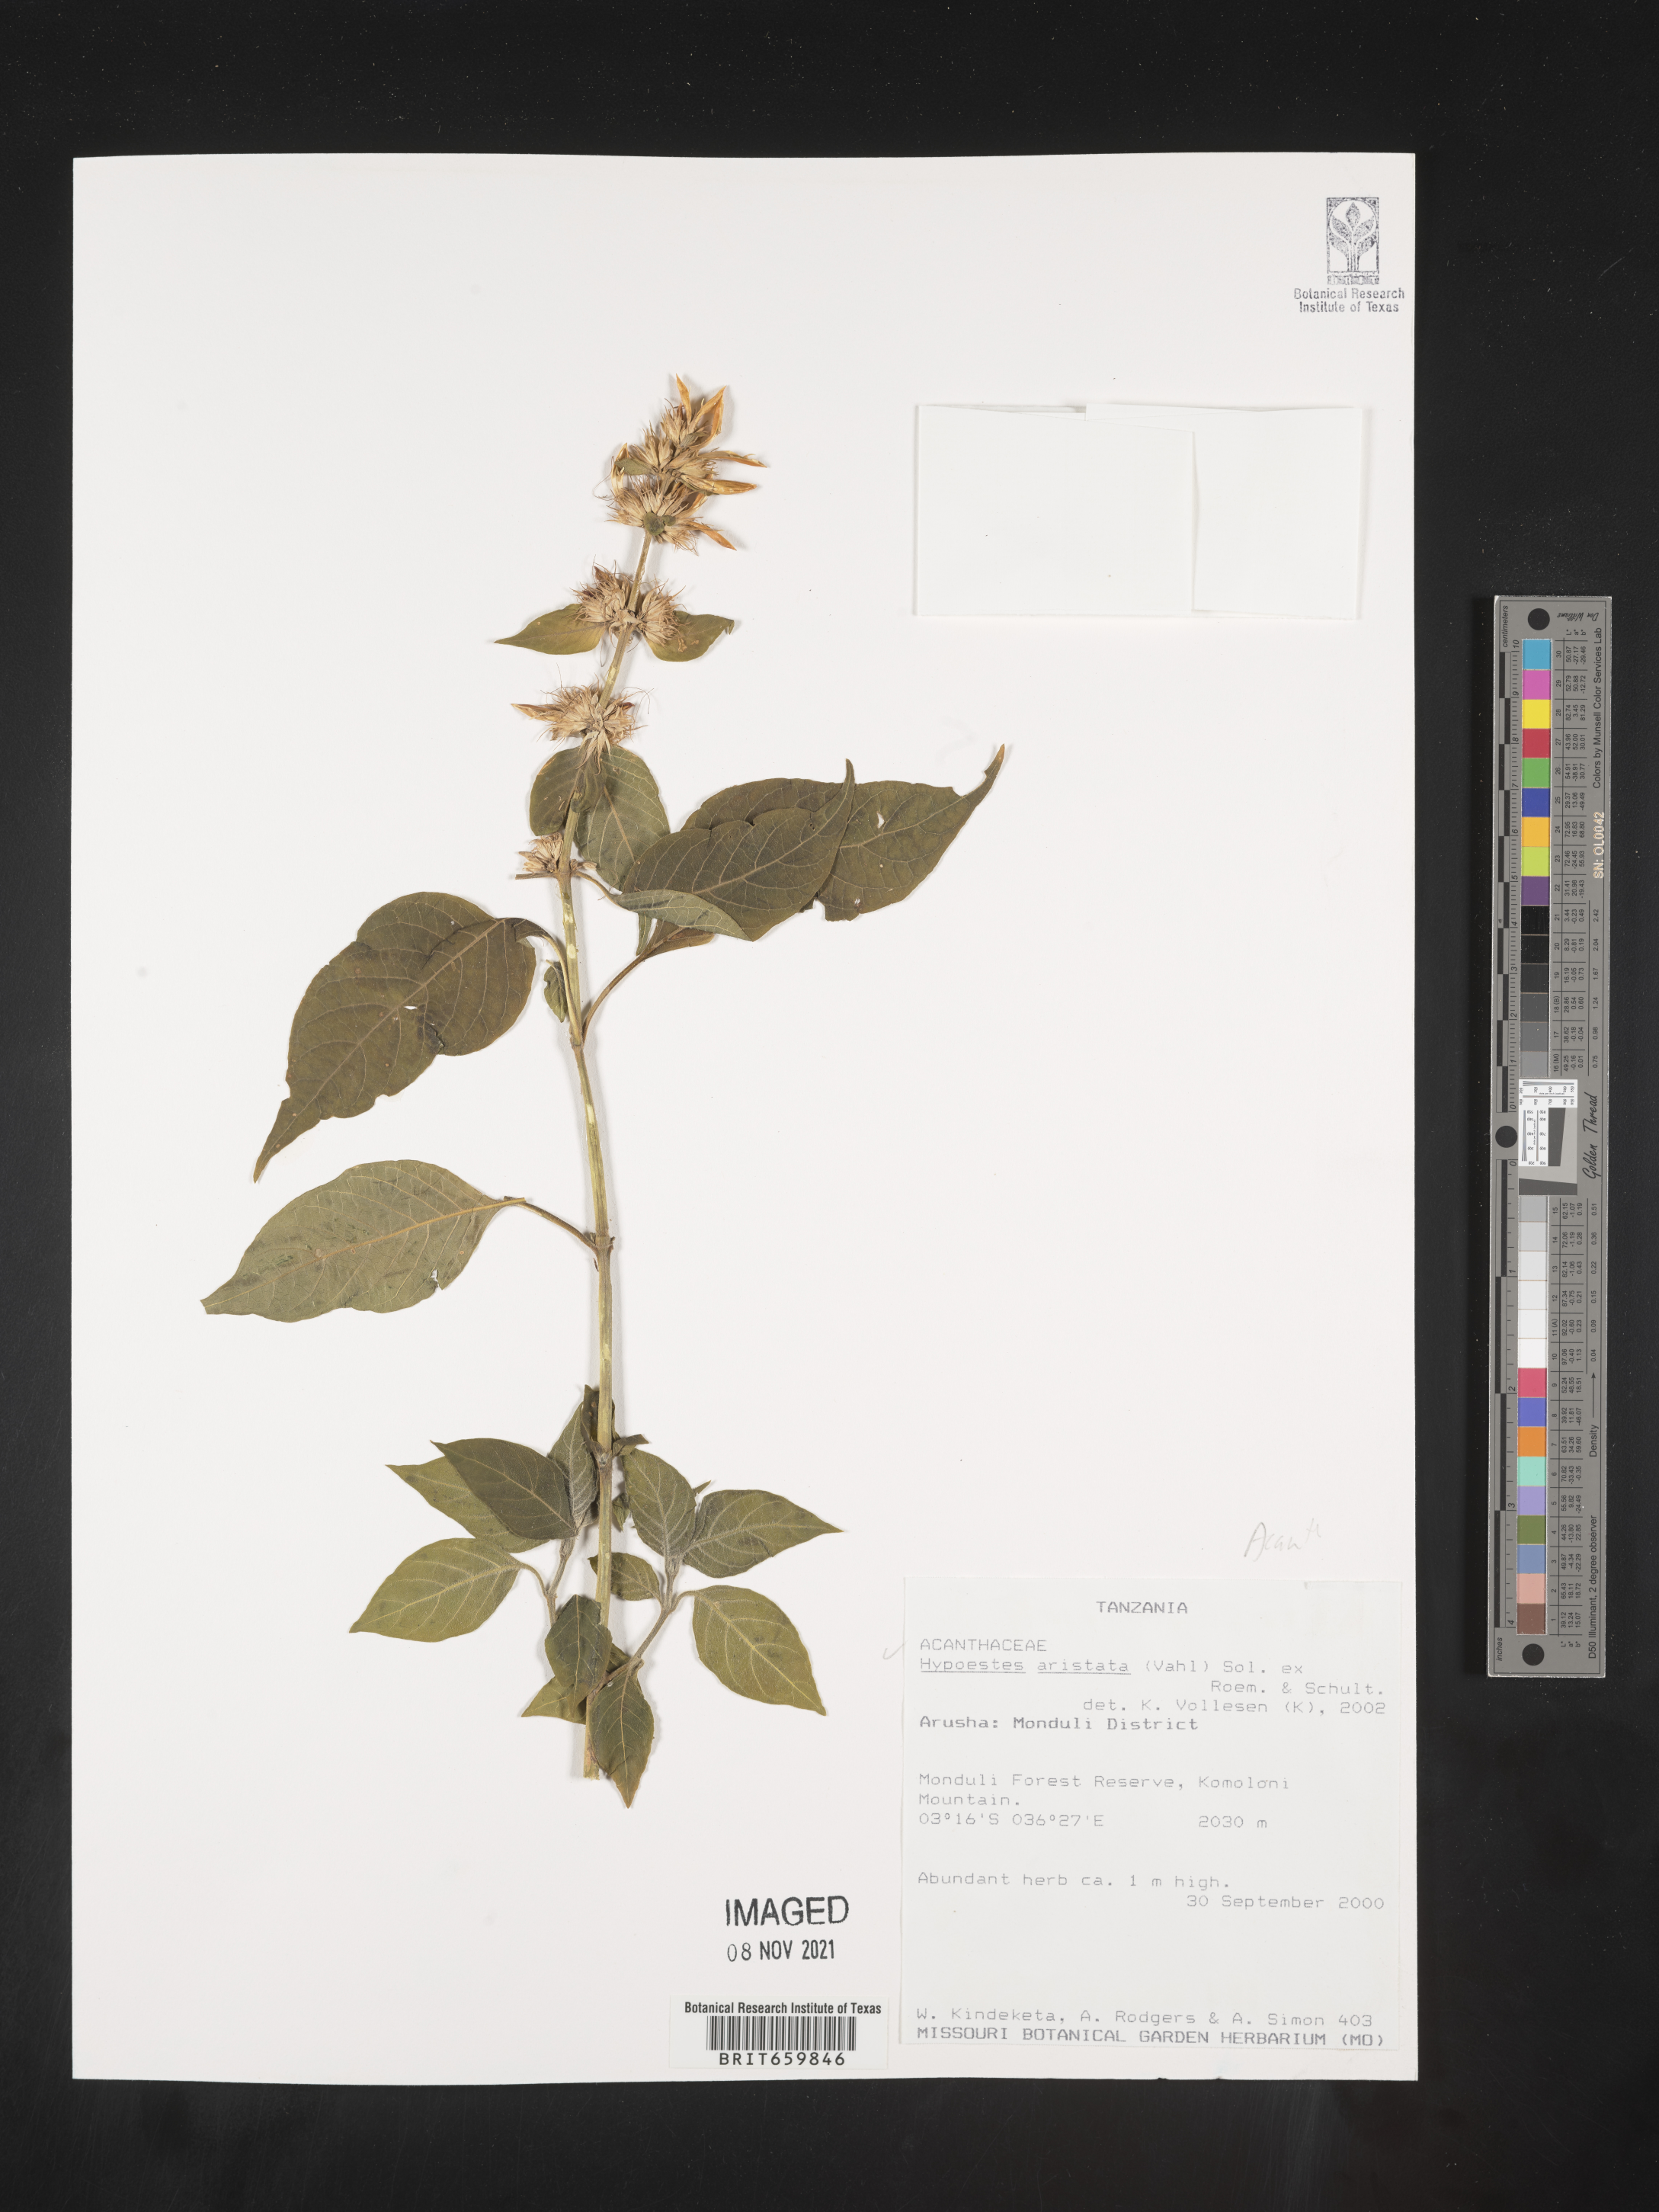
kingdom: Plantae
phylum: Tracheophyta
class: Magnoliopsida
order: Lamiales
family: Acanthaceae
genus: Hypoestes
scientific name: Hypoestes aristata
